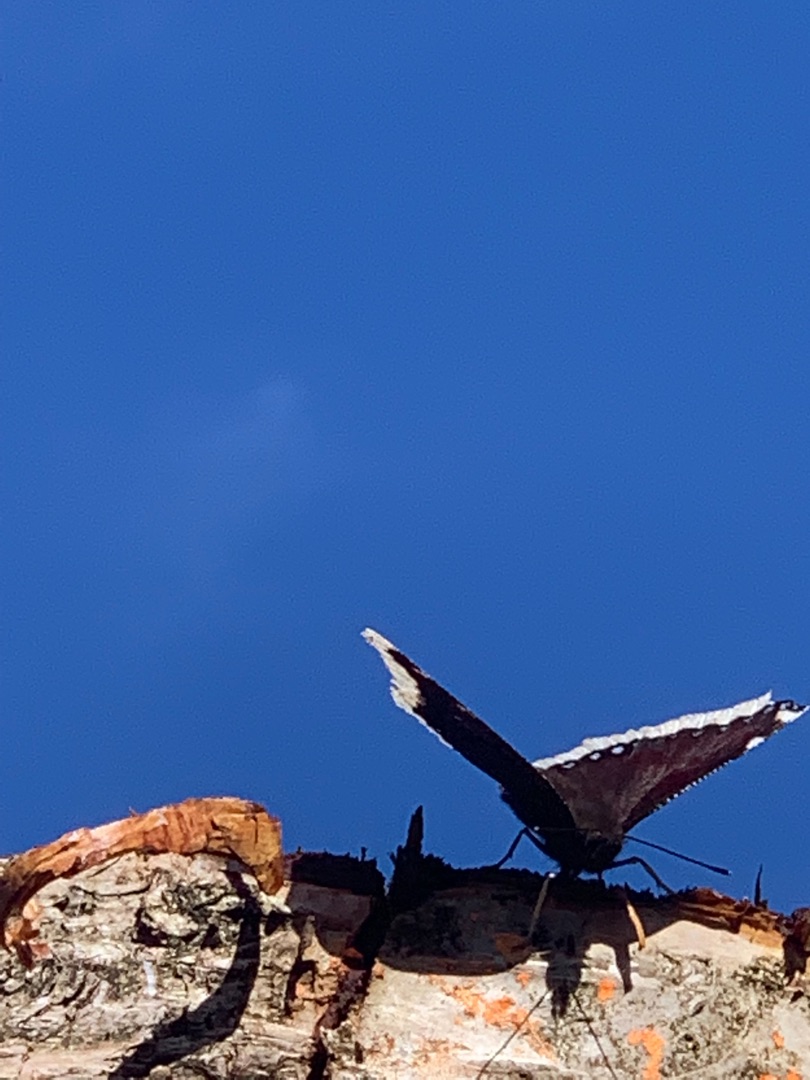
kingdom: Animalia
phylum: Arthropoda
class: Insecta
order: Lepidoptera
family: Nymphalidae
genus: Nymphalis
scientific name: Nymphalis antiopa
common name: Sørgekåbe
